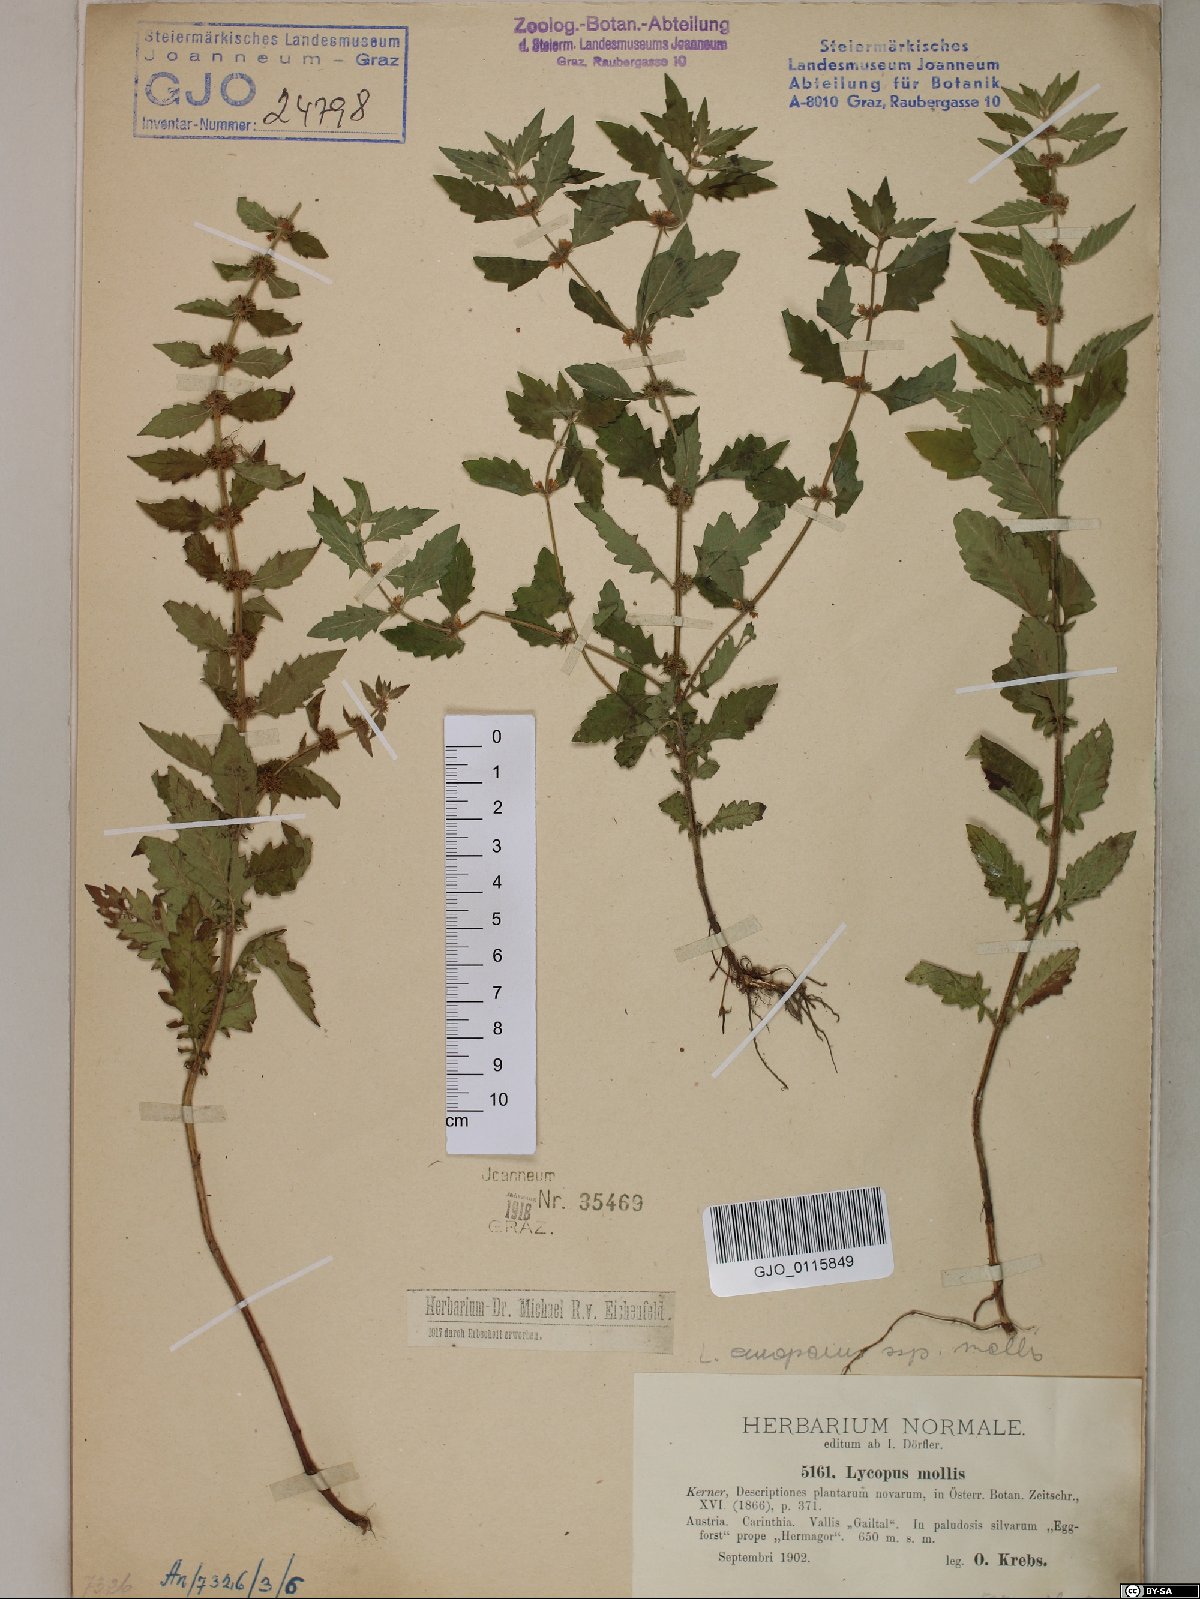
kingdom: Plantae
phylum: Tracheophyta
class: Magnoliopsida
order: Lamiales
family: Lamiaceae
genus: Lycopus
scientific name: Lycopus europaeus
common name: European bugleweed
